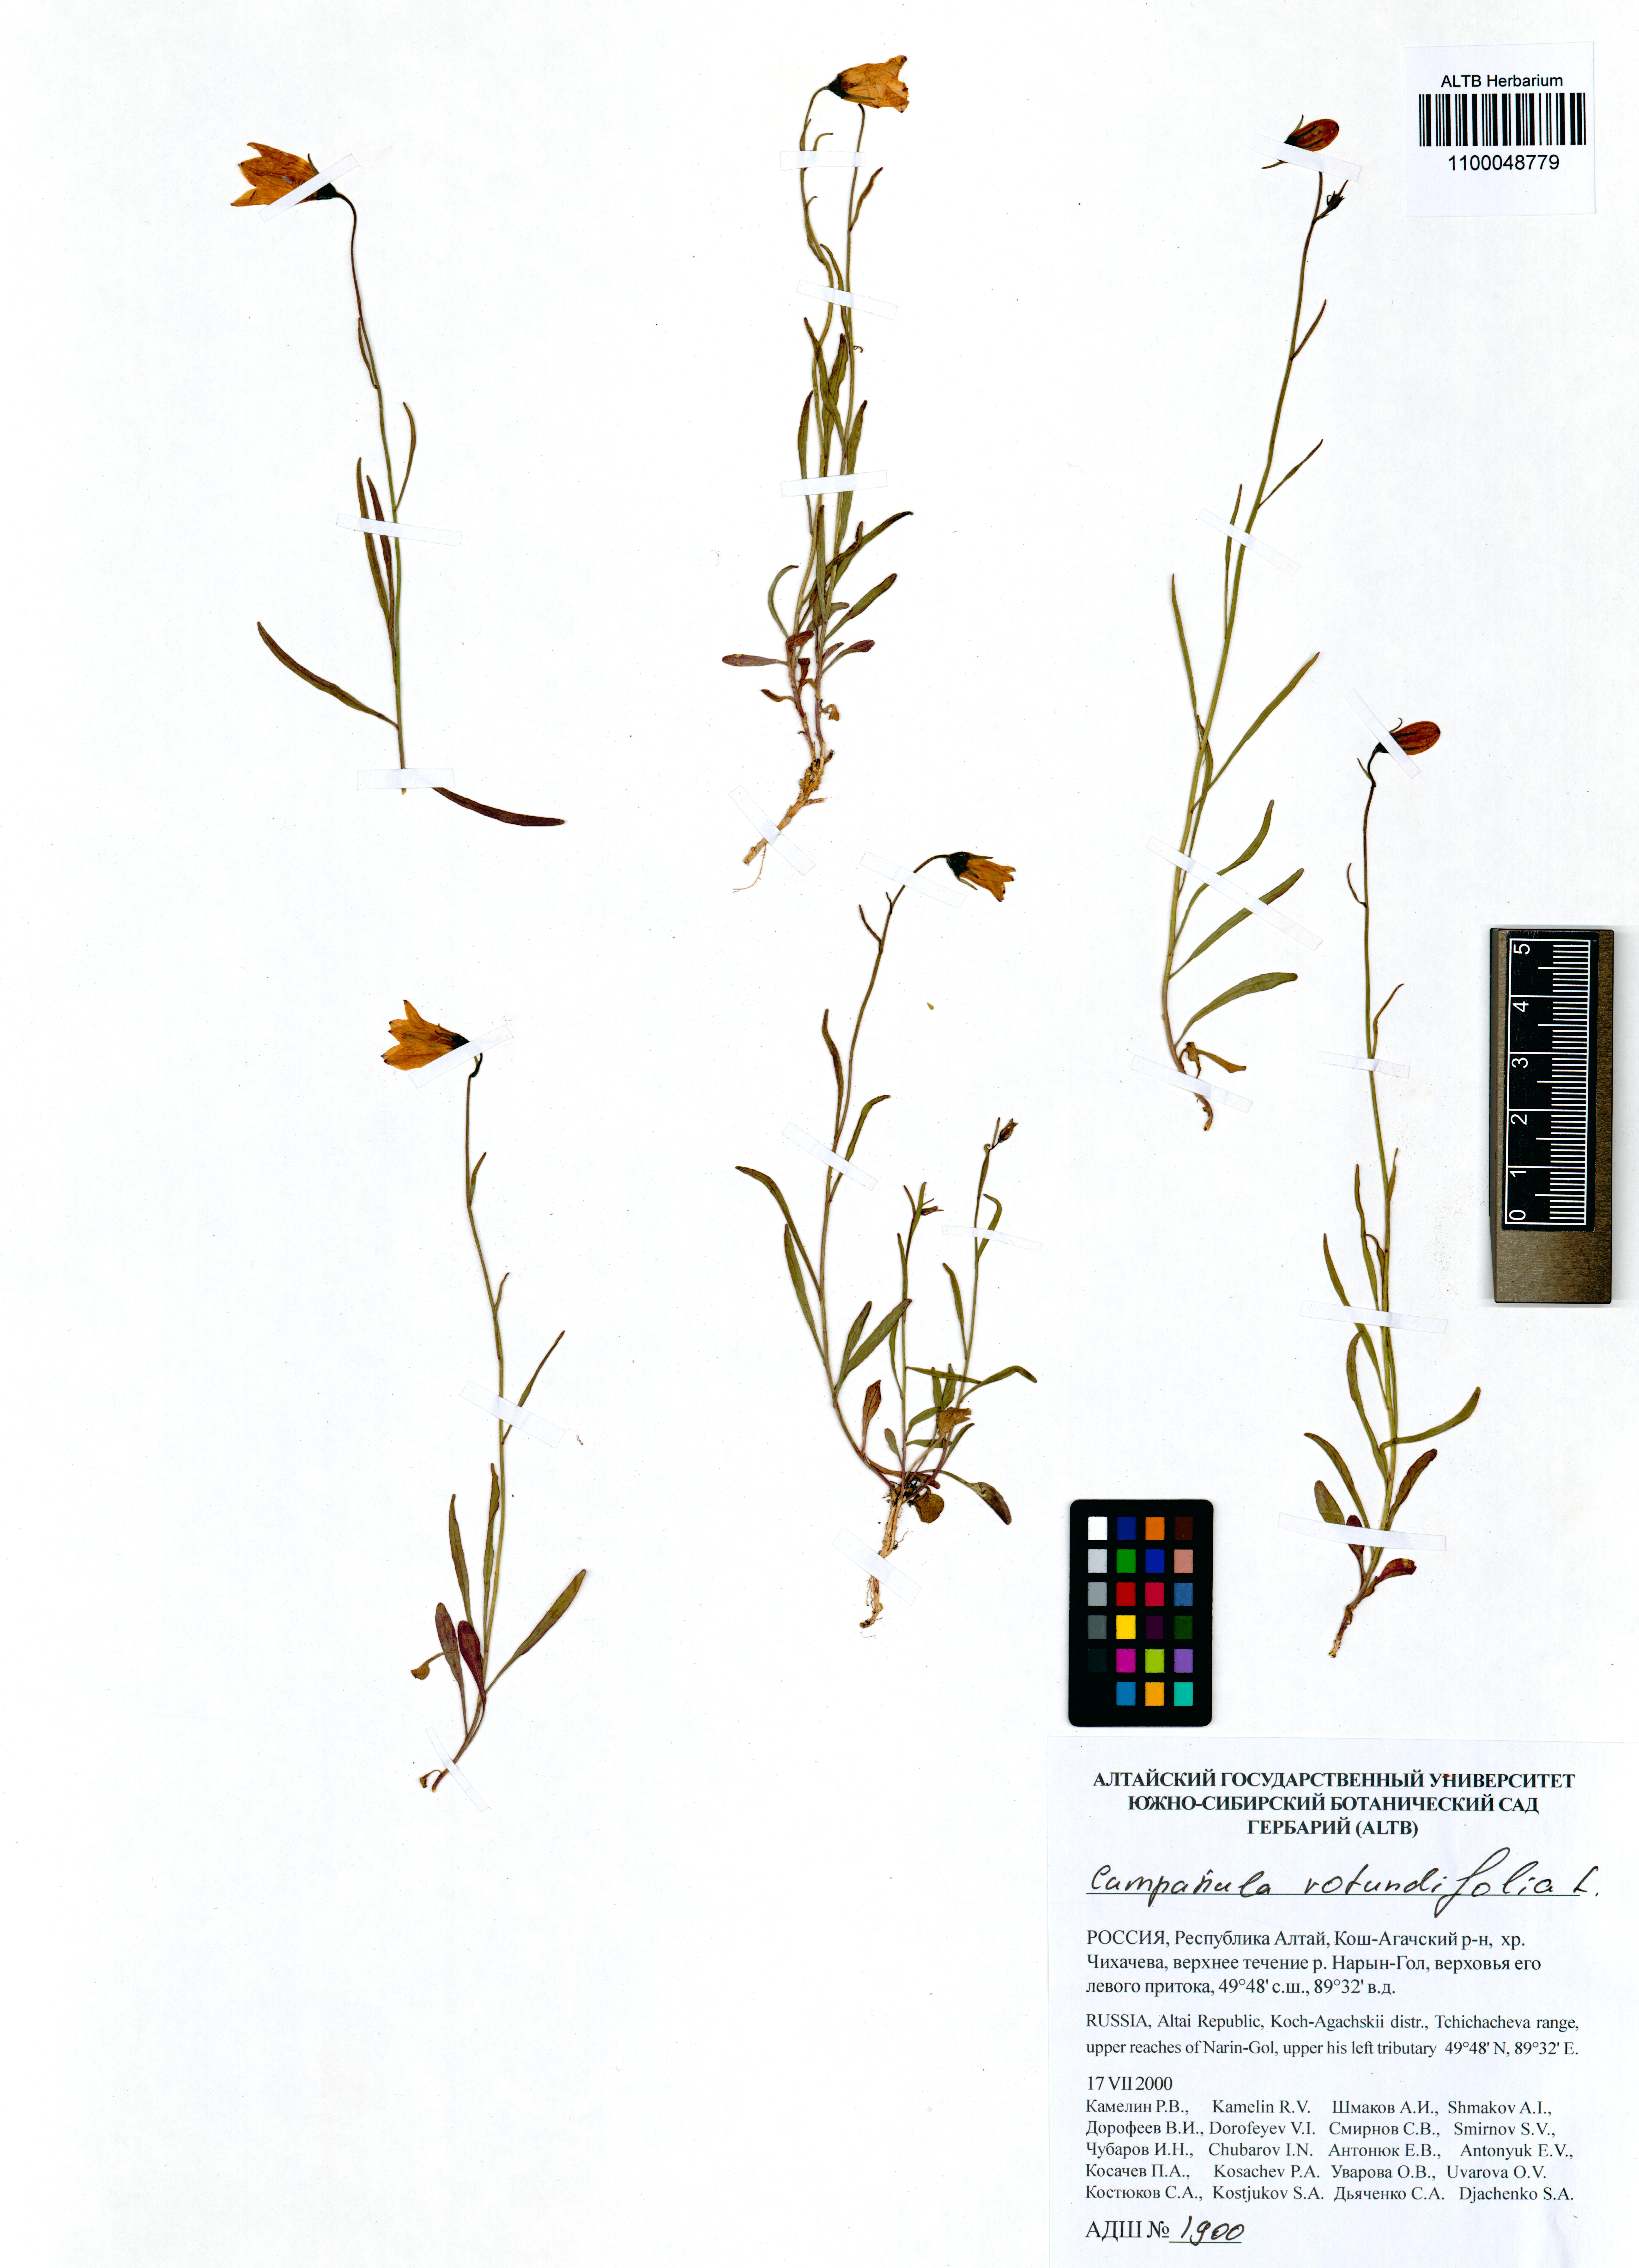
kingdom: Plantae
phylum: Tracheophyta
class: Magnoliopsida
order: Asterales
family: Campanulaceae
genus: Campanula
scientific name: Campanula rotundifolia
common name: Harebell
